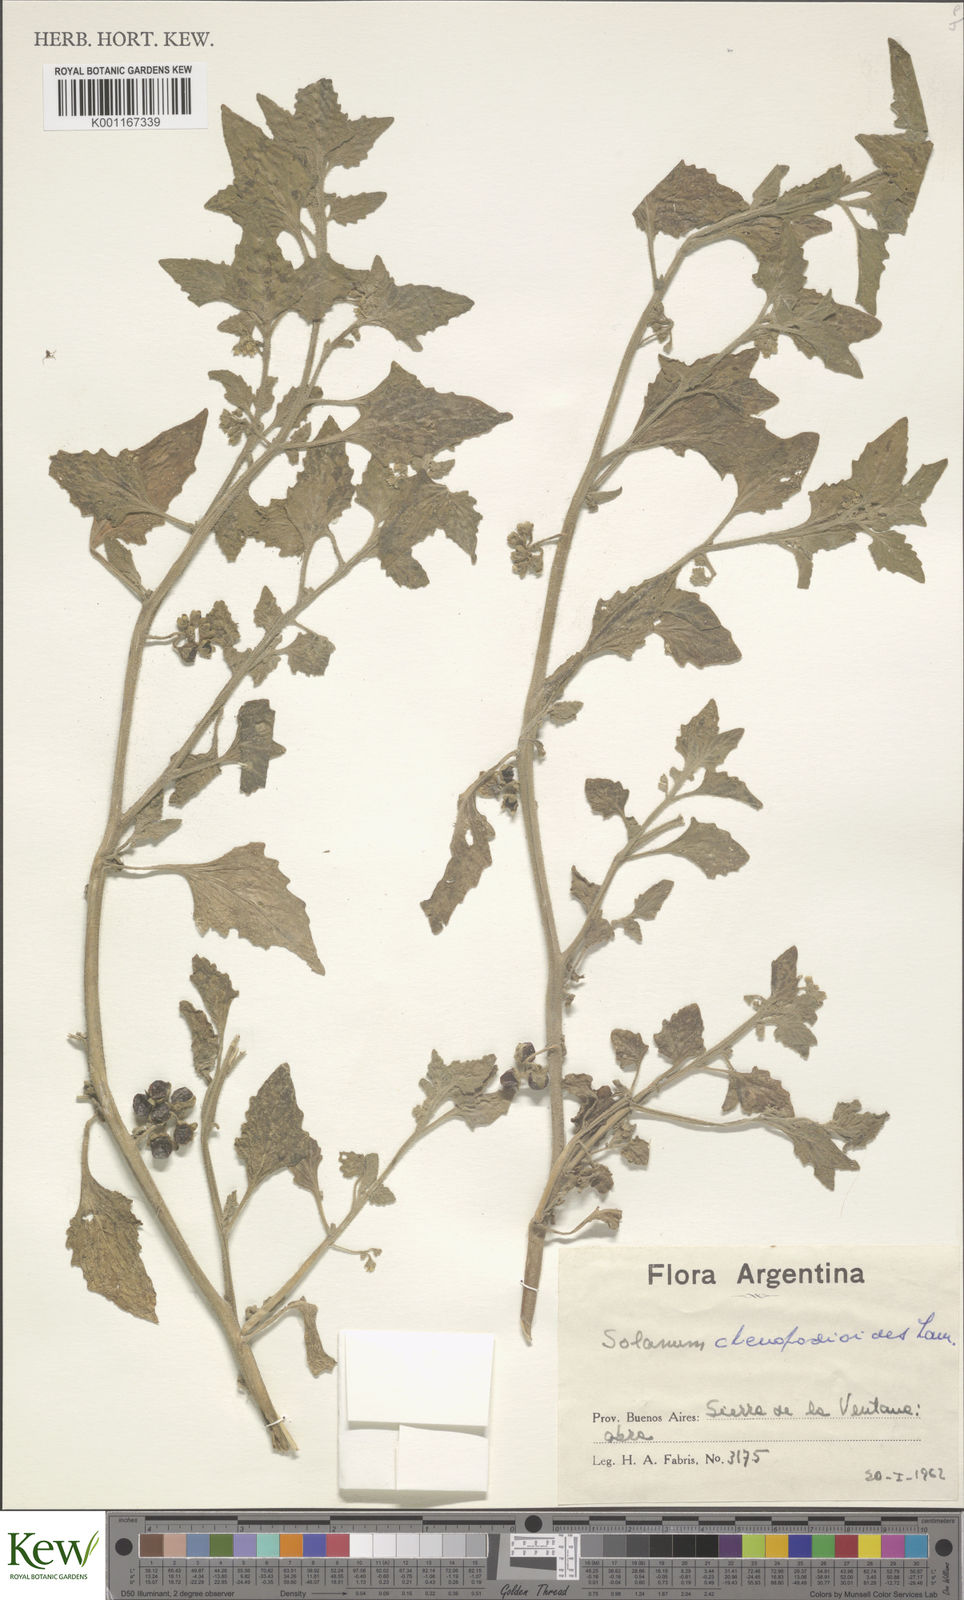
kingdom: Plantae
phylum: Tracheophyta
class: Magnoliopsida
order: Solanales
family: Solanaceae
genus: Solanum
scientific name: Solanum nitidibaccatum
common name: Hairy nightshade
